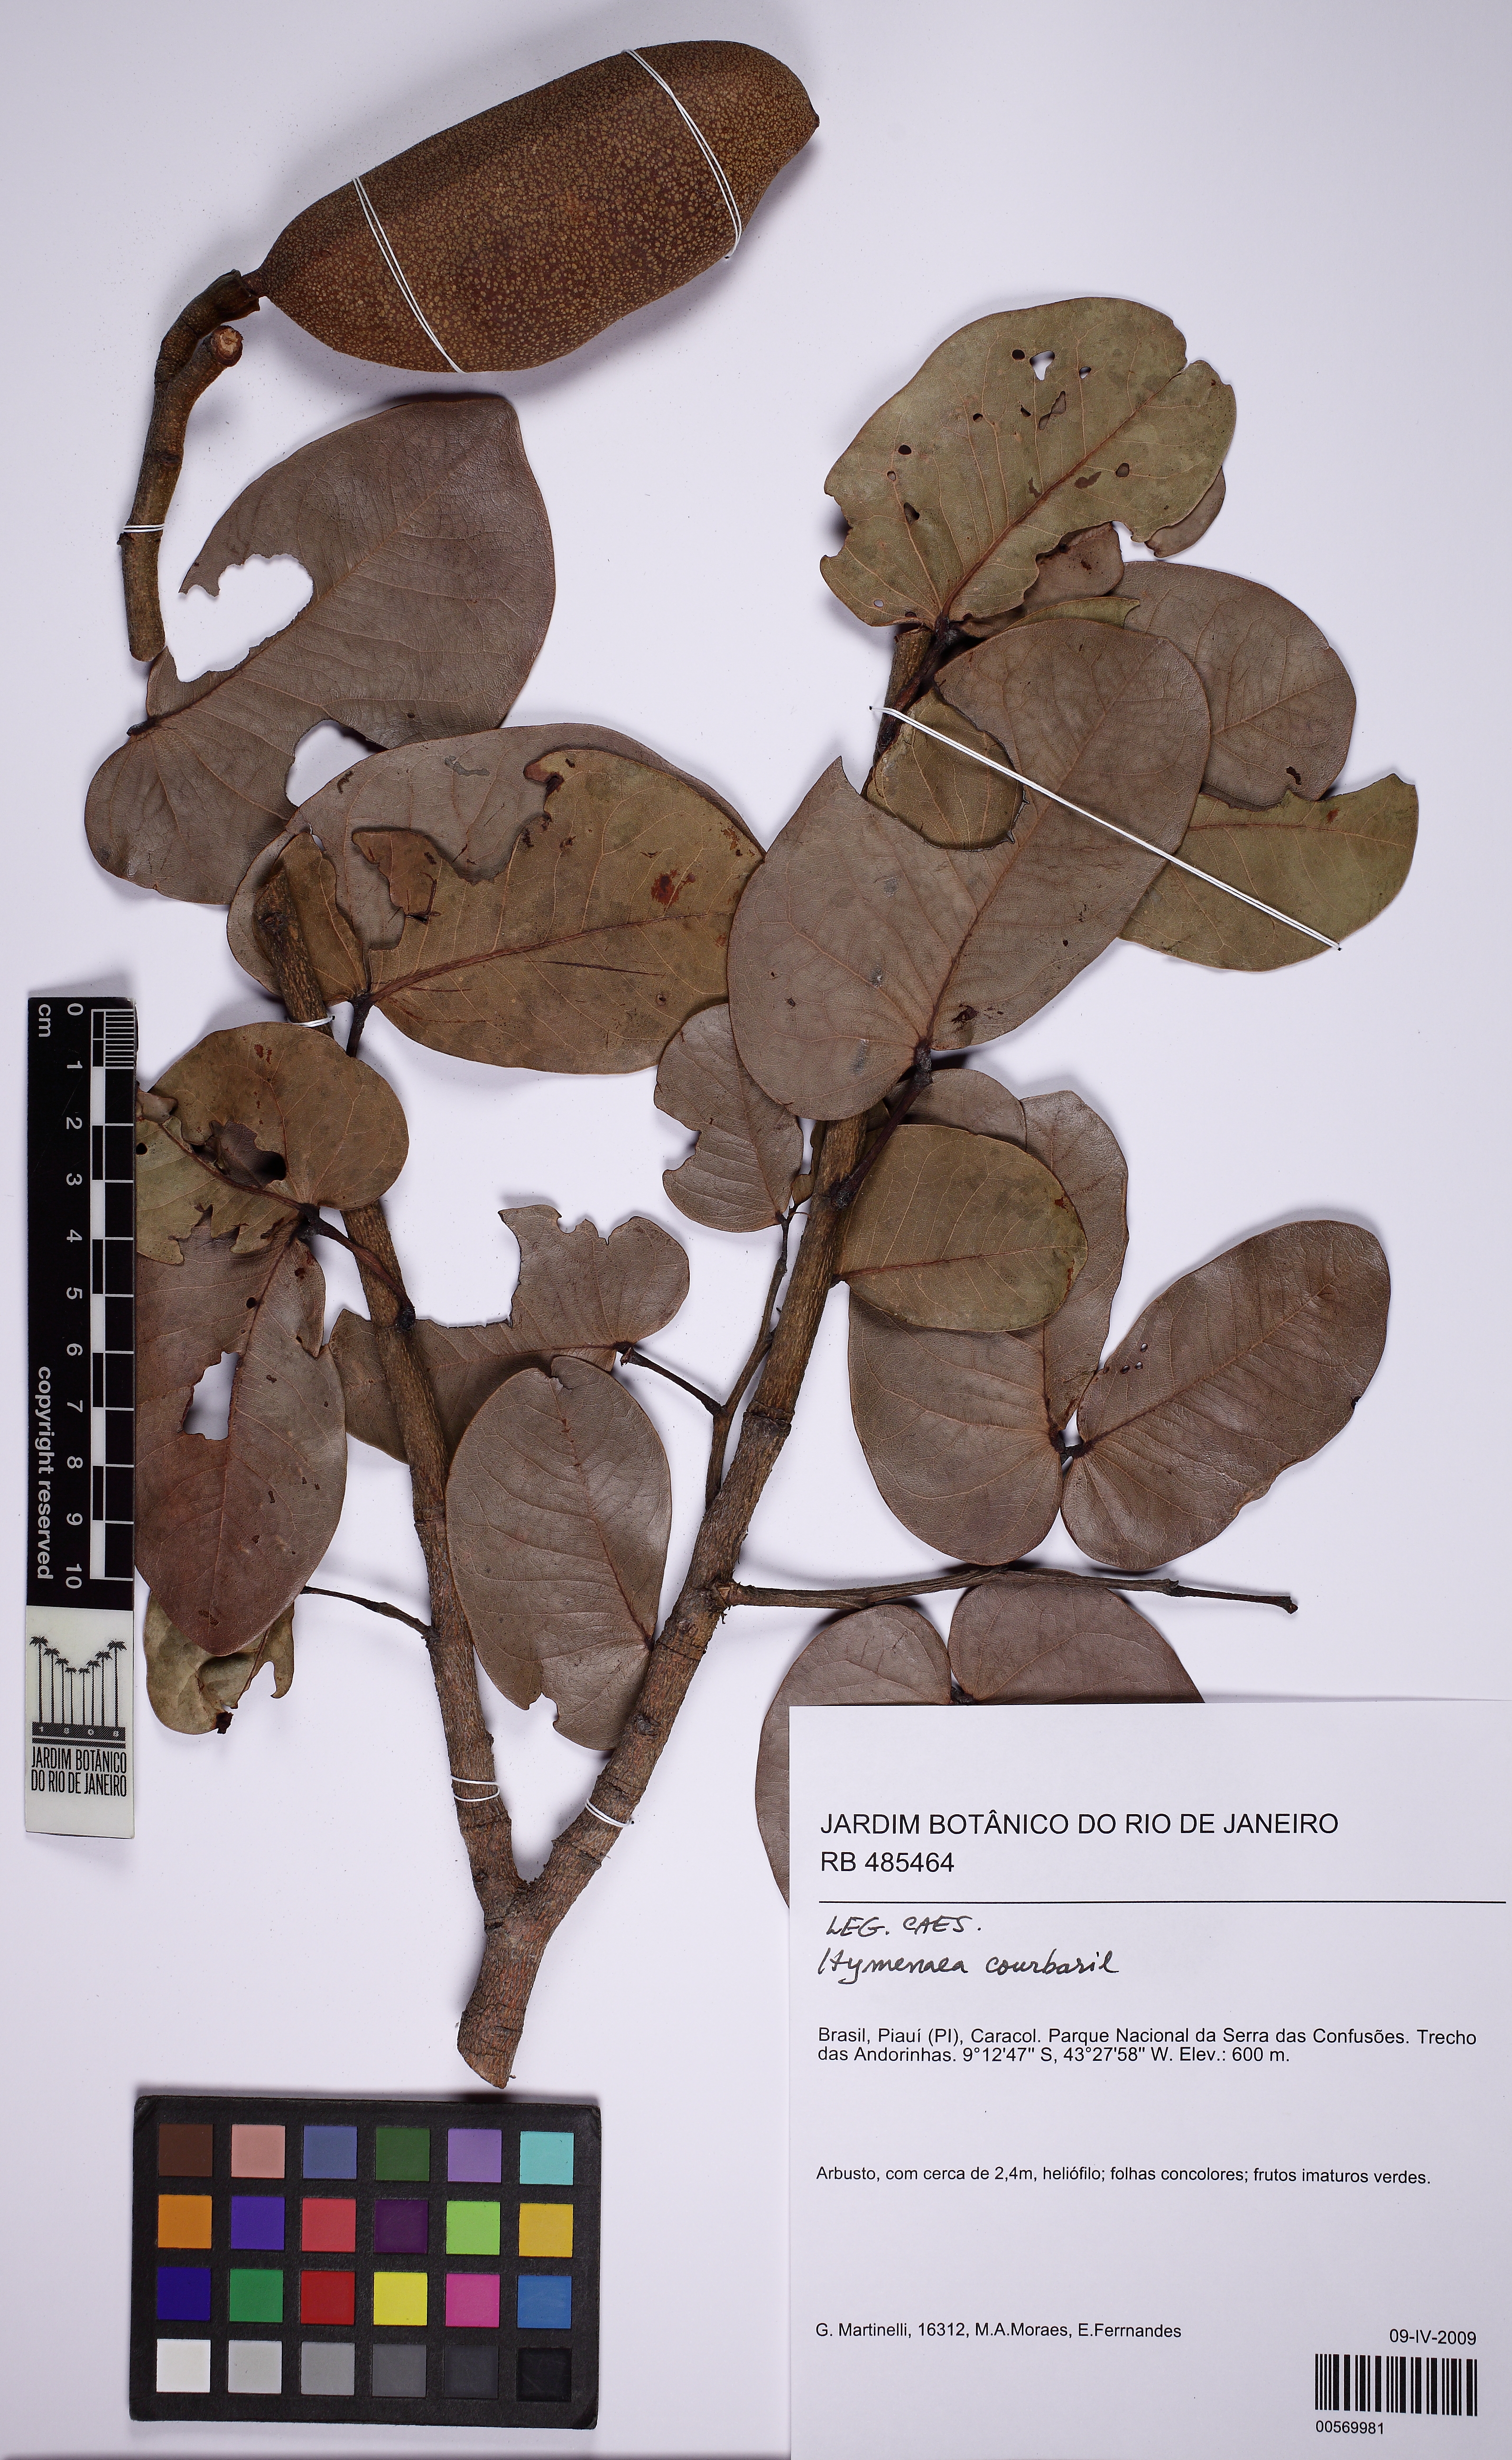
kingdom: Plantae
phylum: Tracheophyta
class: Magnoliopsida
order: Fabales
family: Fabaceae
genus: Hymenaea
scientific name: Hymenaea velutina
